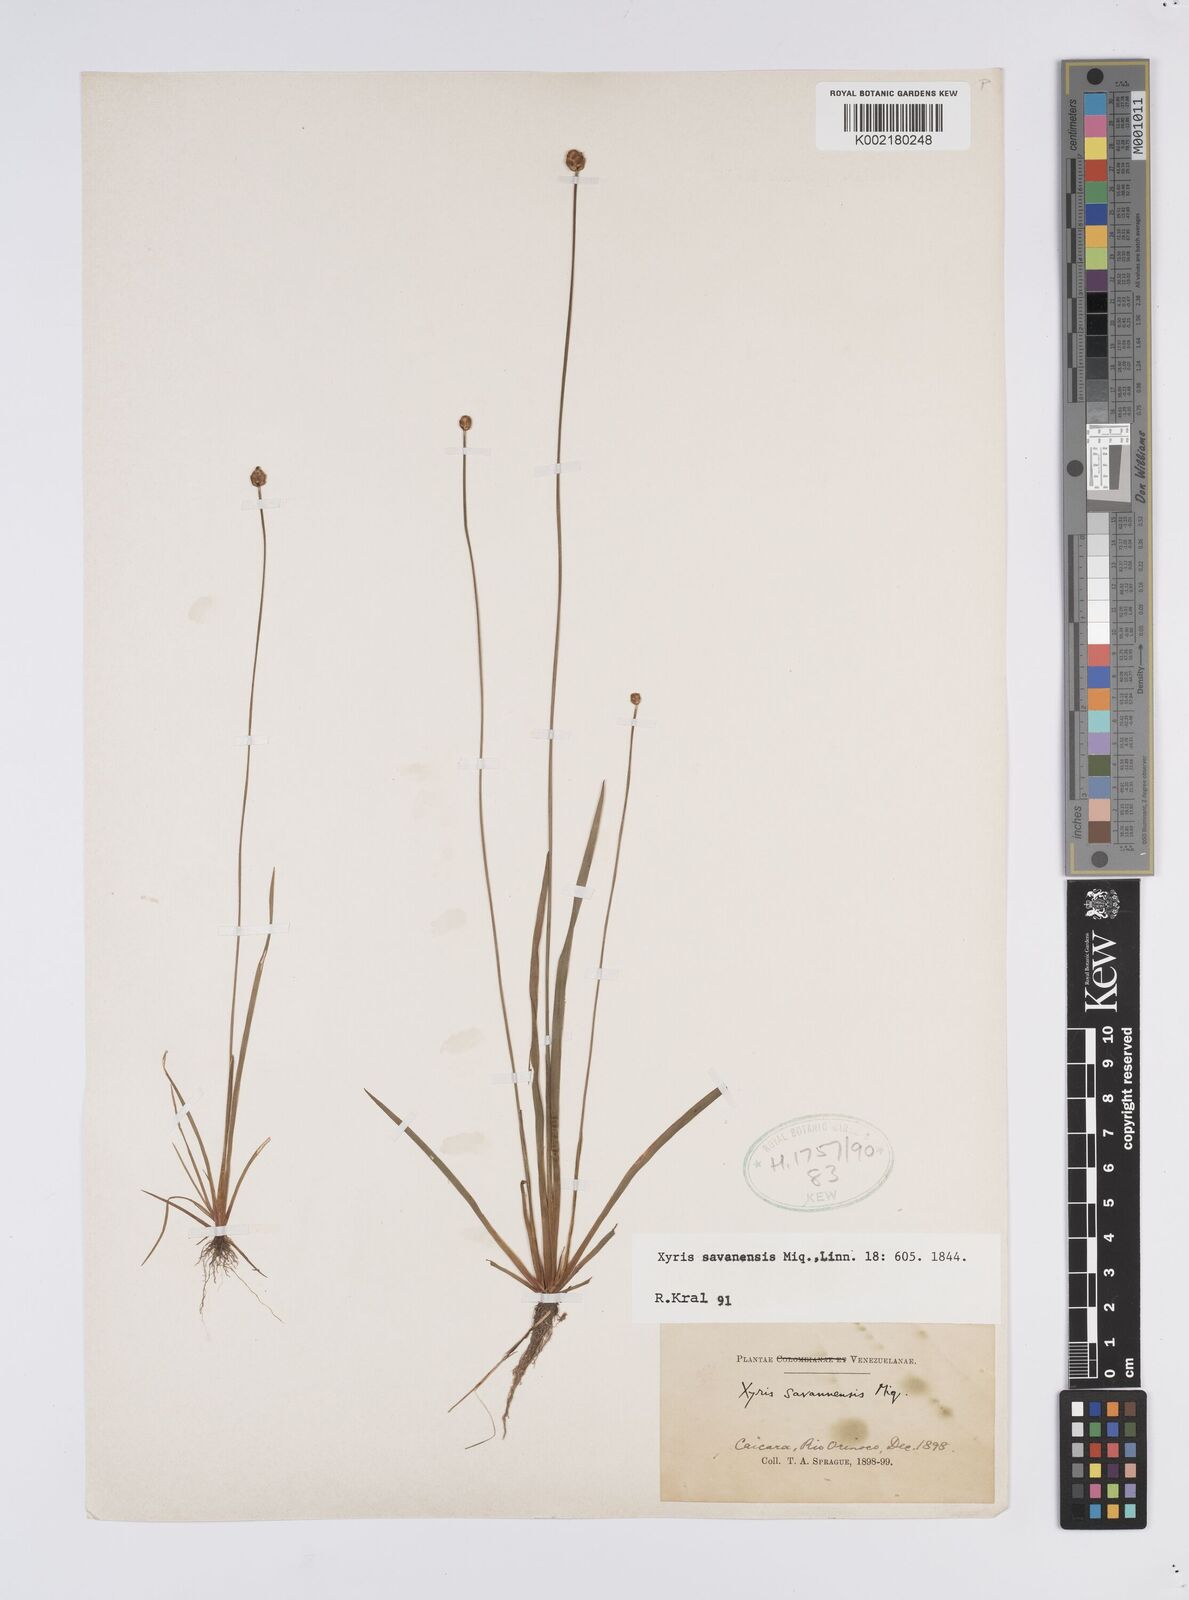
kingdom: Plantae
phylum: Tracheophyta
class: Liliopsida
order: Poales
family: Xyridaceae
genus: Xyris
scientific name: Xyris savanensis
